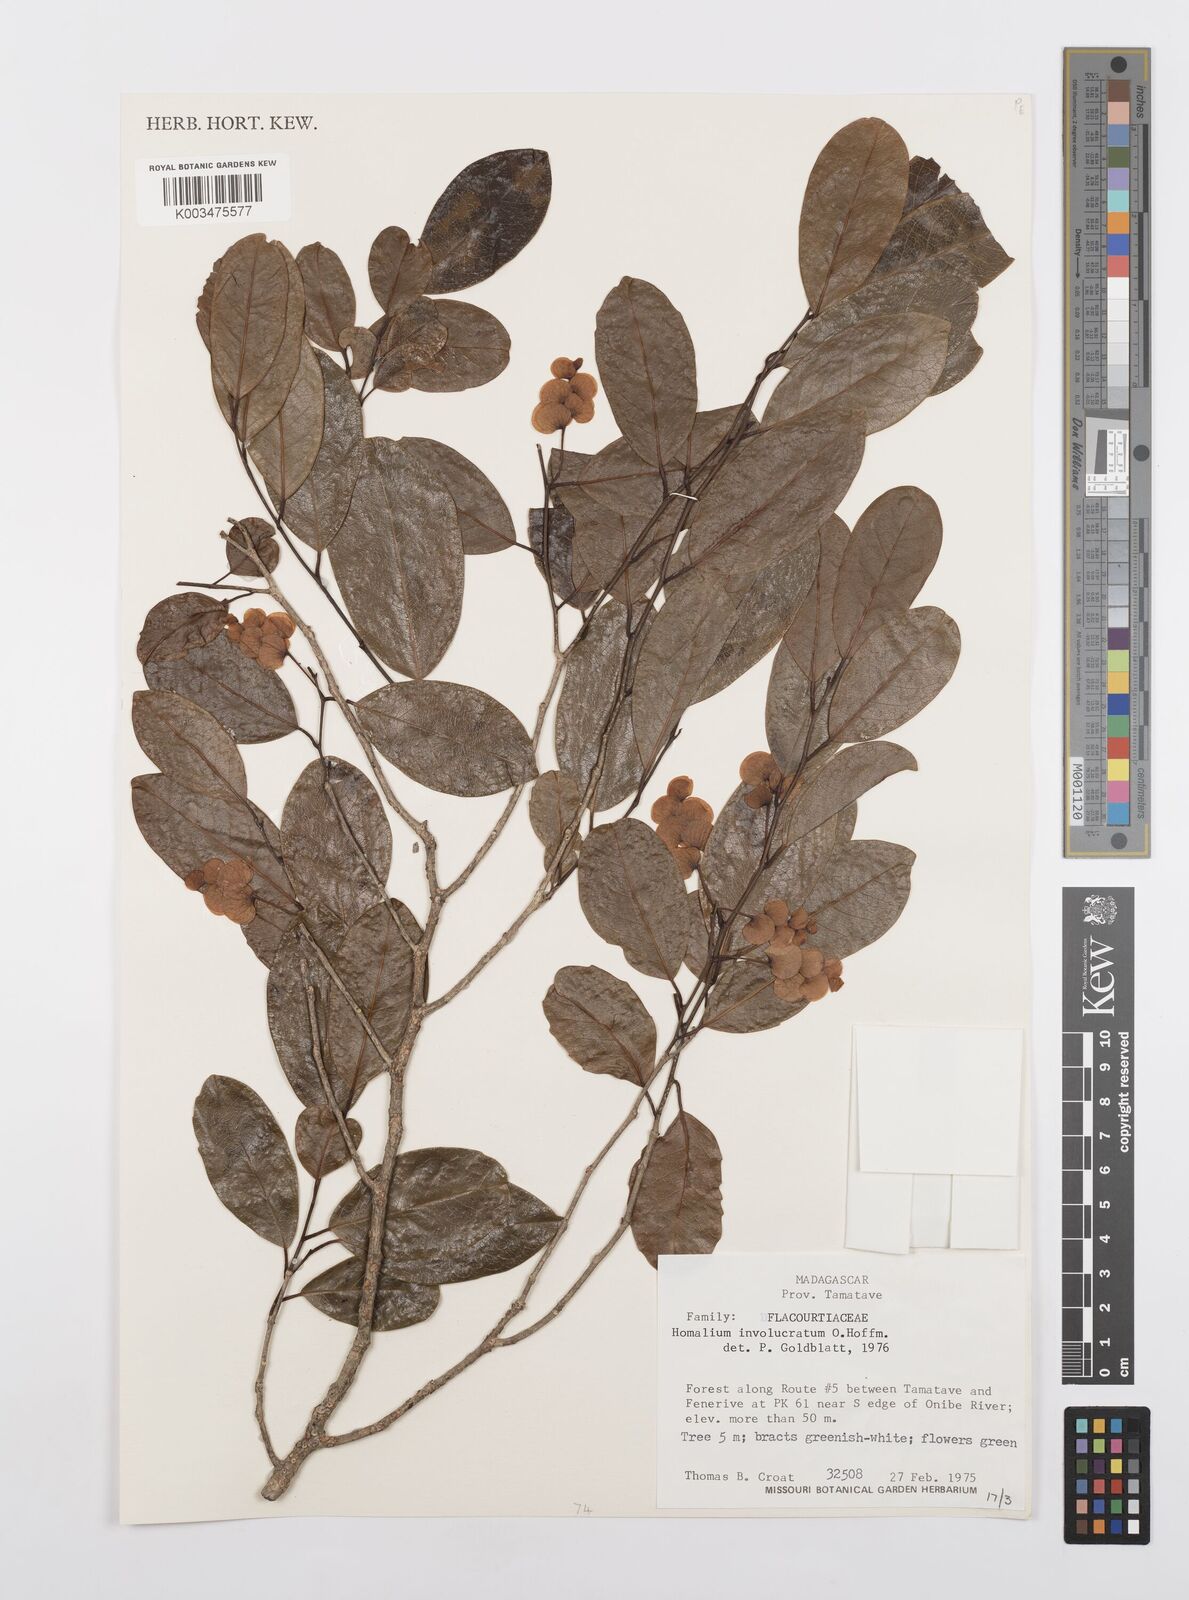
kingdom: Plantae
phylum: Tracheophyta
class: Magnoliopsida
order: Malpighiales
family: Salicaceae
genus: Homalium
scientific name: Homalium involucratum
